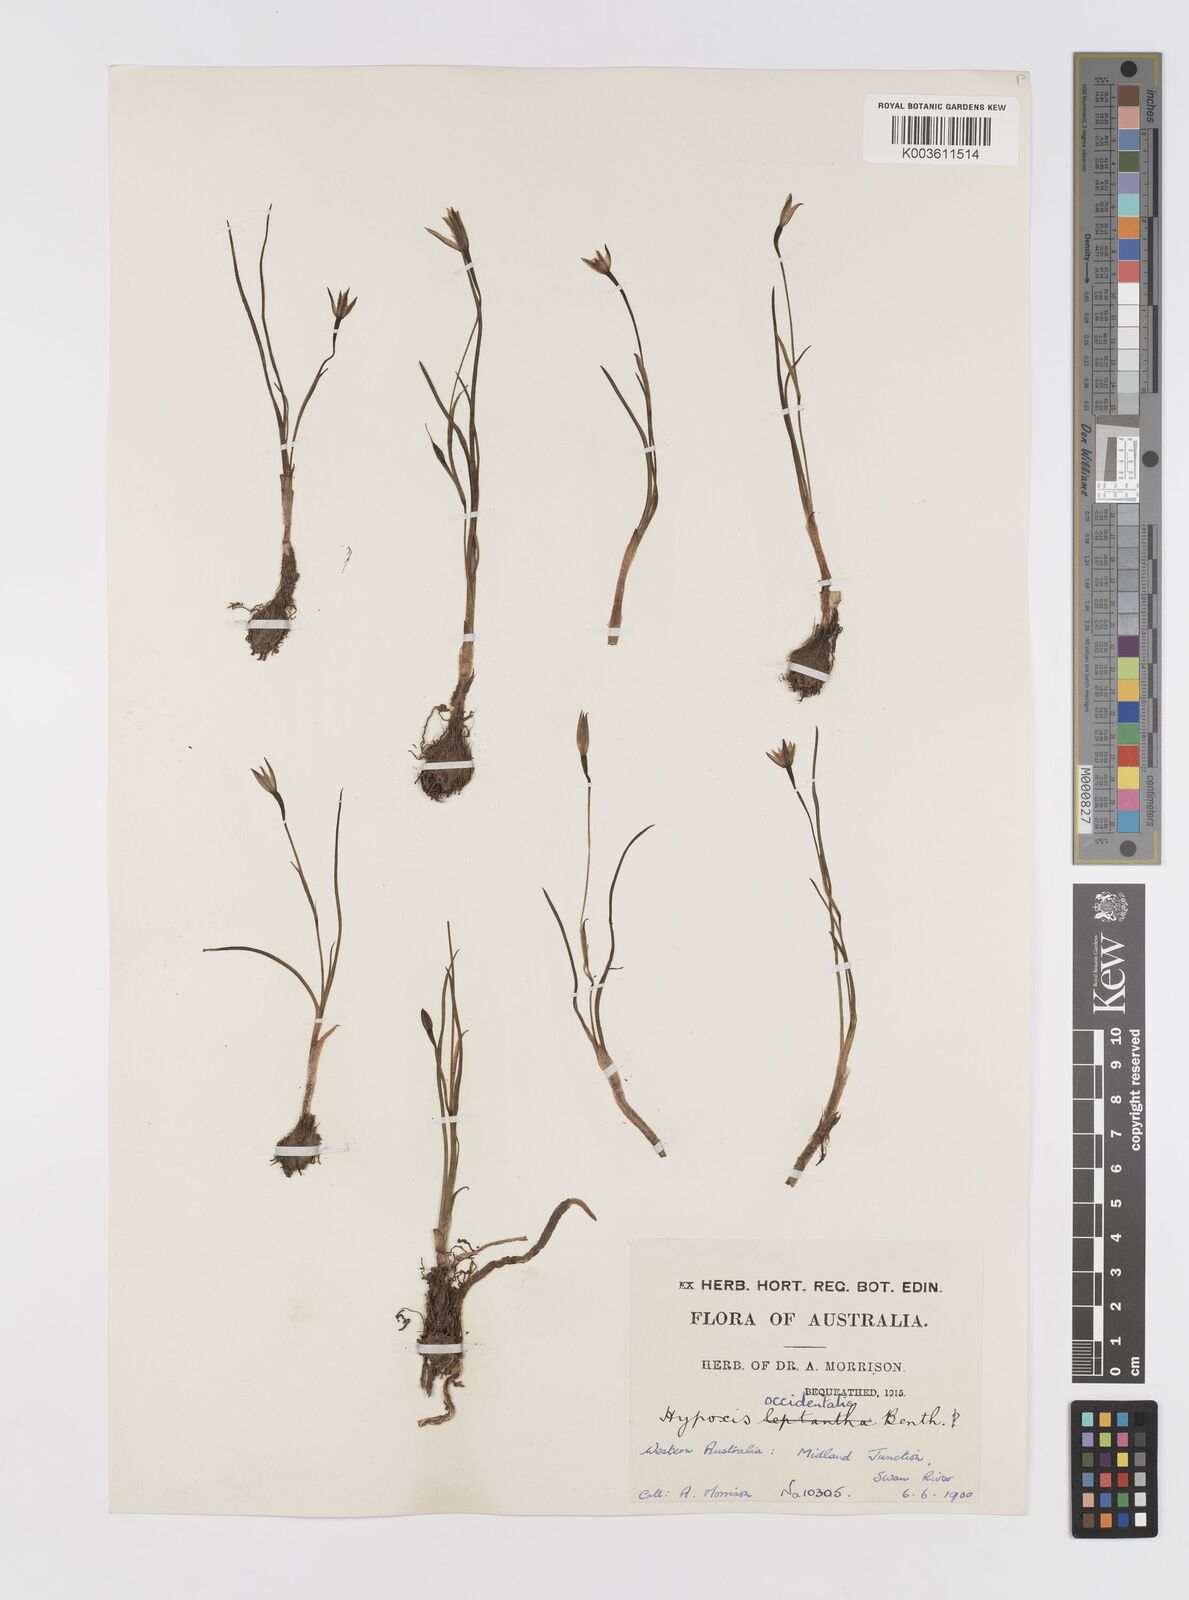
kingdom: Plantae
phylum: Tracheophyta
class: Liliopsida
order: Asparagales
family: Hypoxidaceae
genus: Pauridia
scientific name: Pauridia occidentalis
